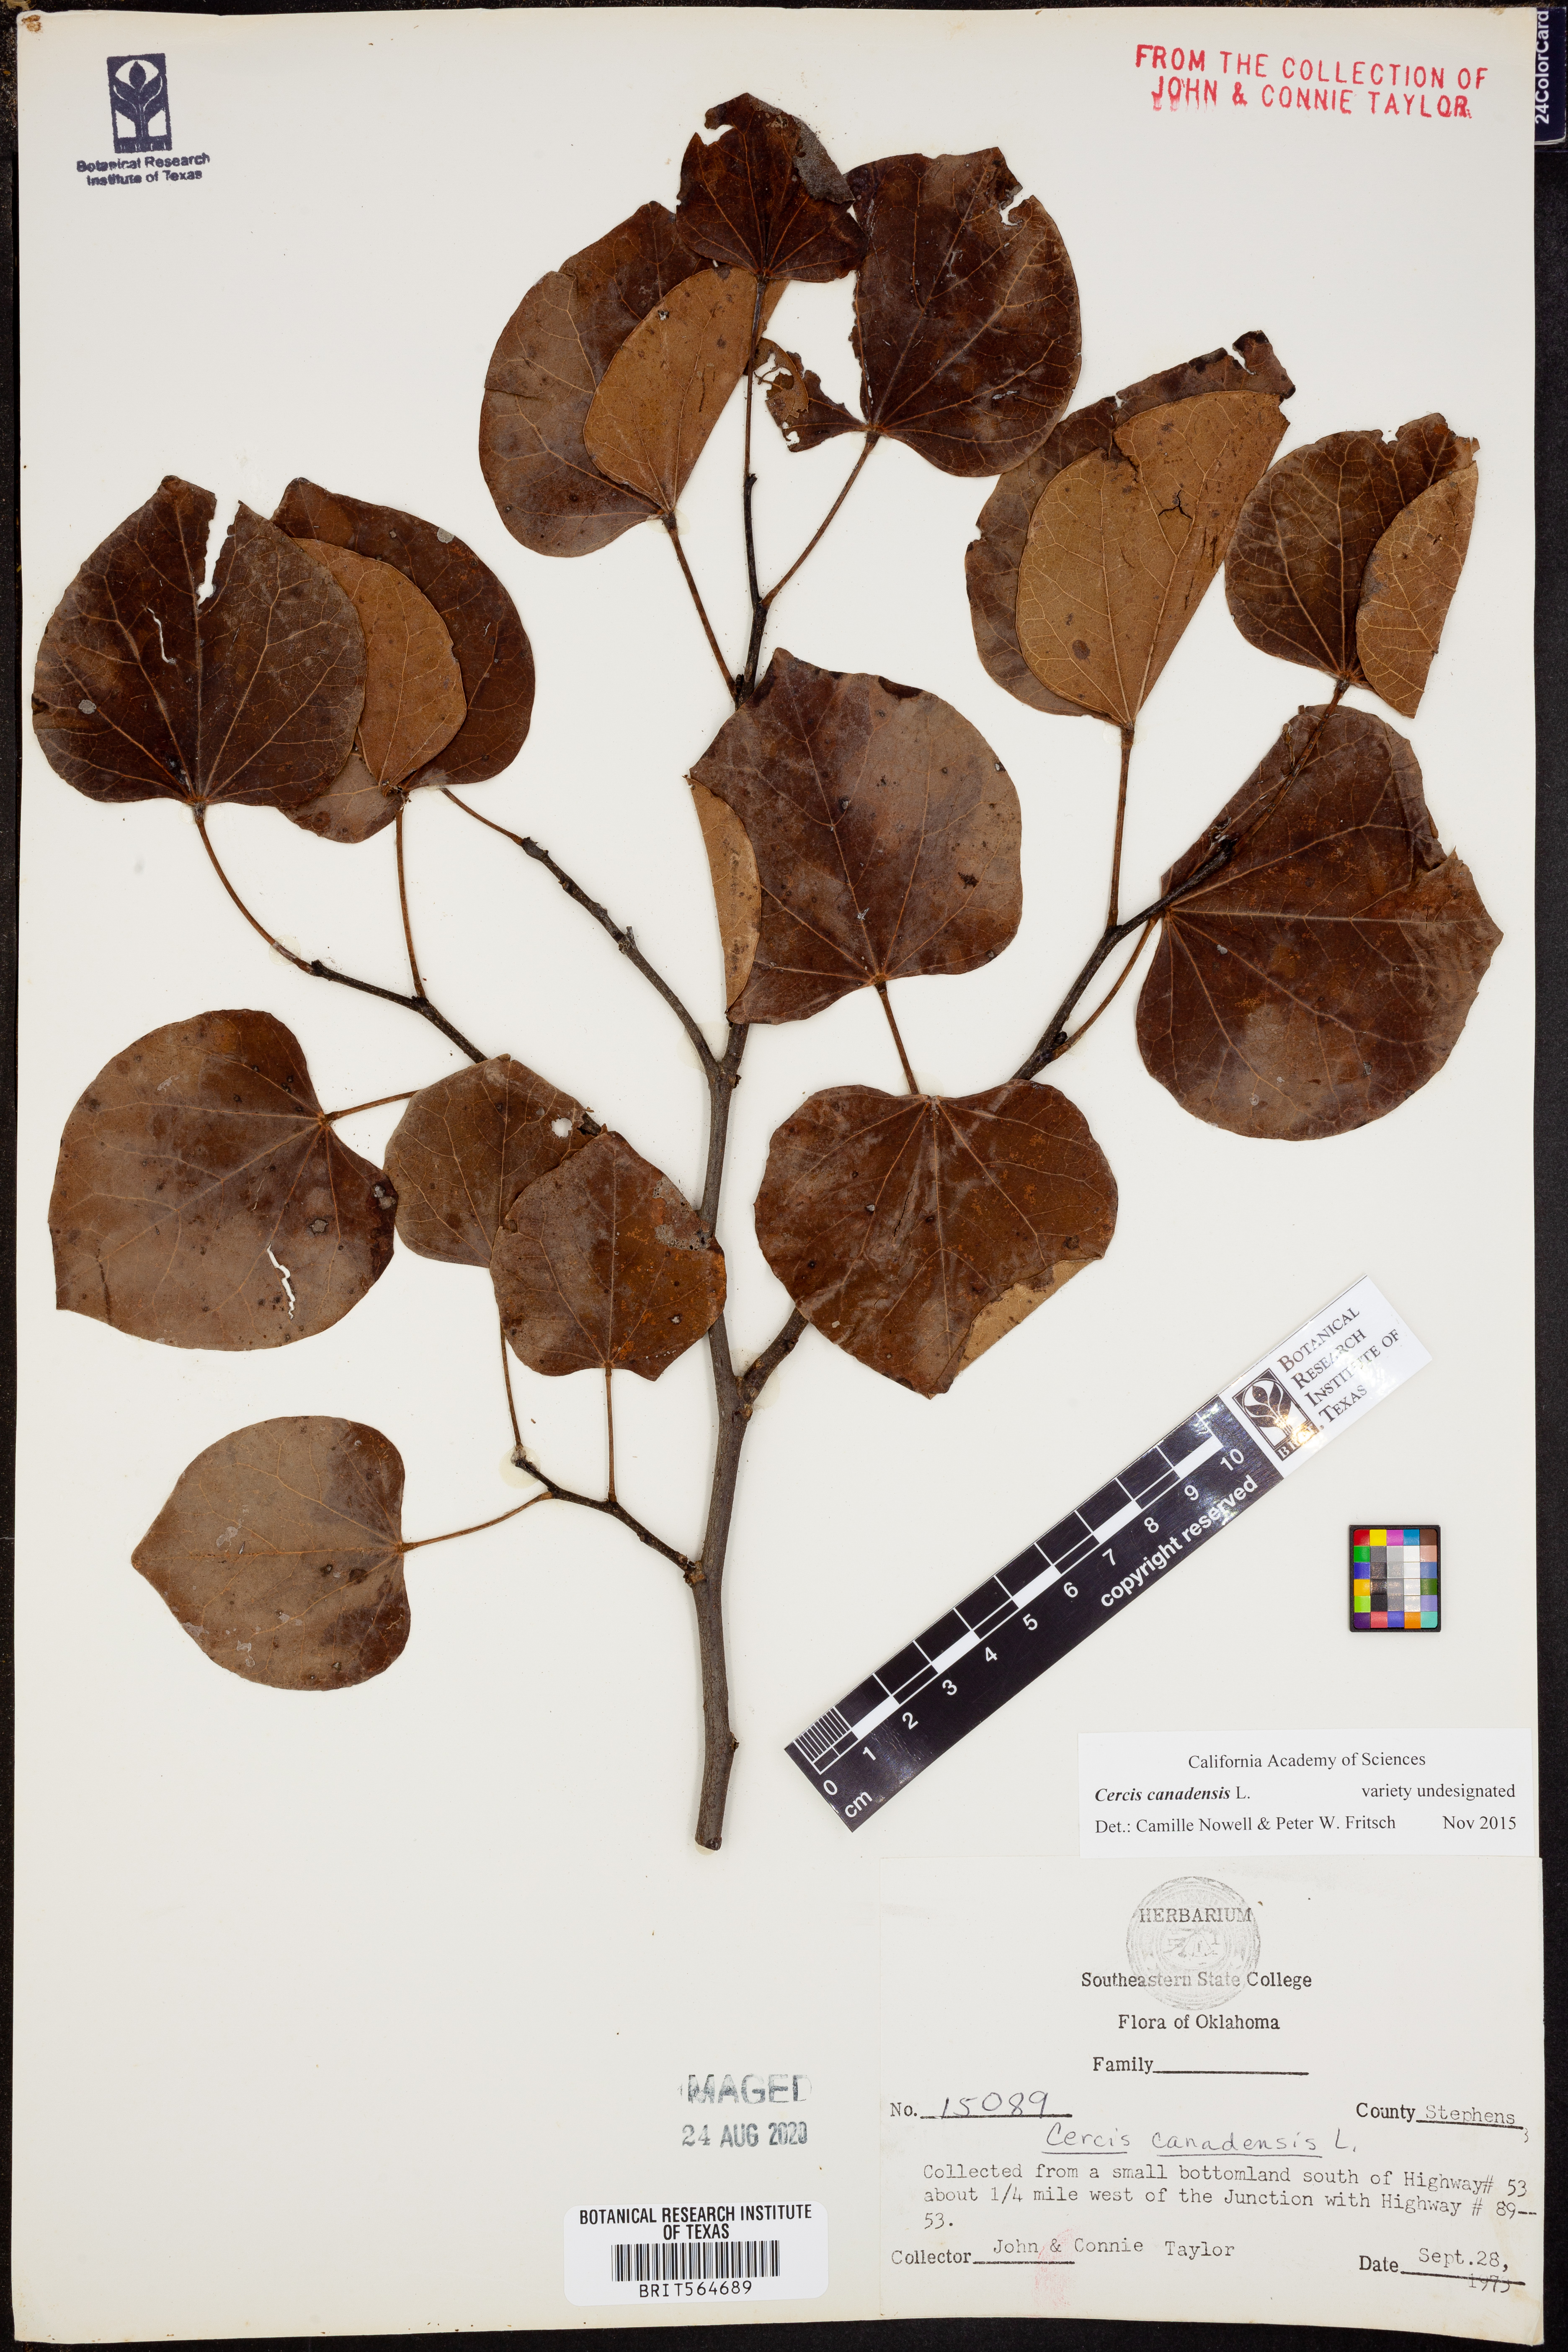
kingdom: Plantae
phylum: Tracheophyta
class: Magnoliopsida
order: Fabales
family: Fabaceae
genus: Cercis
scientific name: Cercis canadensis
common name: Eastern redbud
